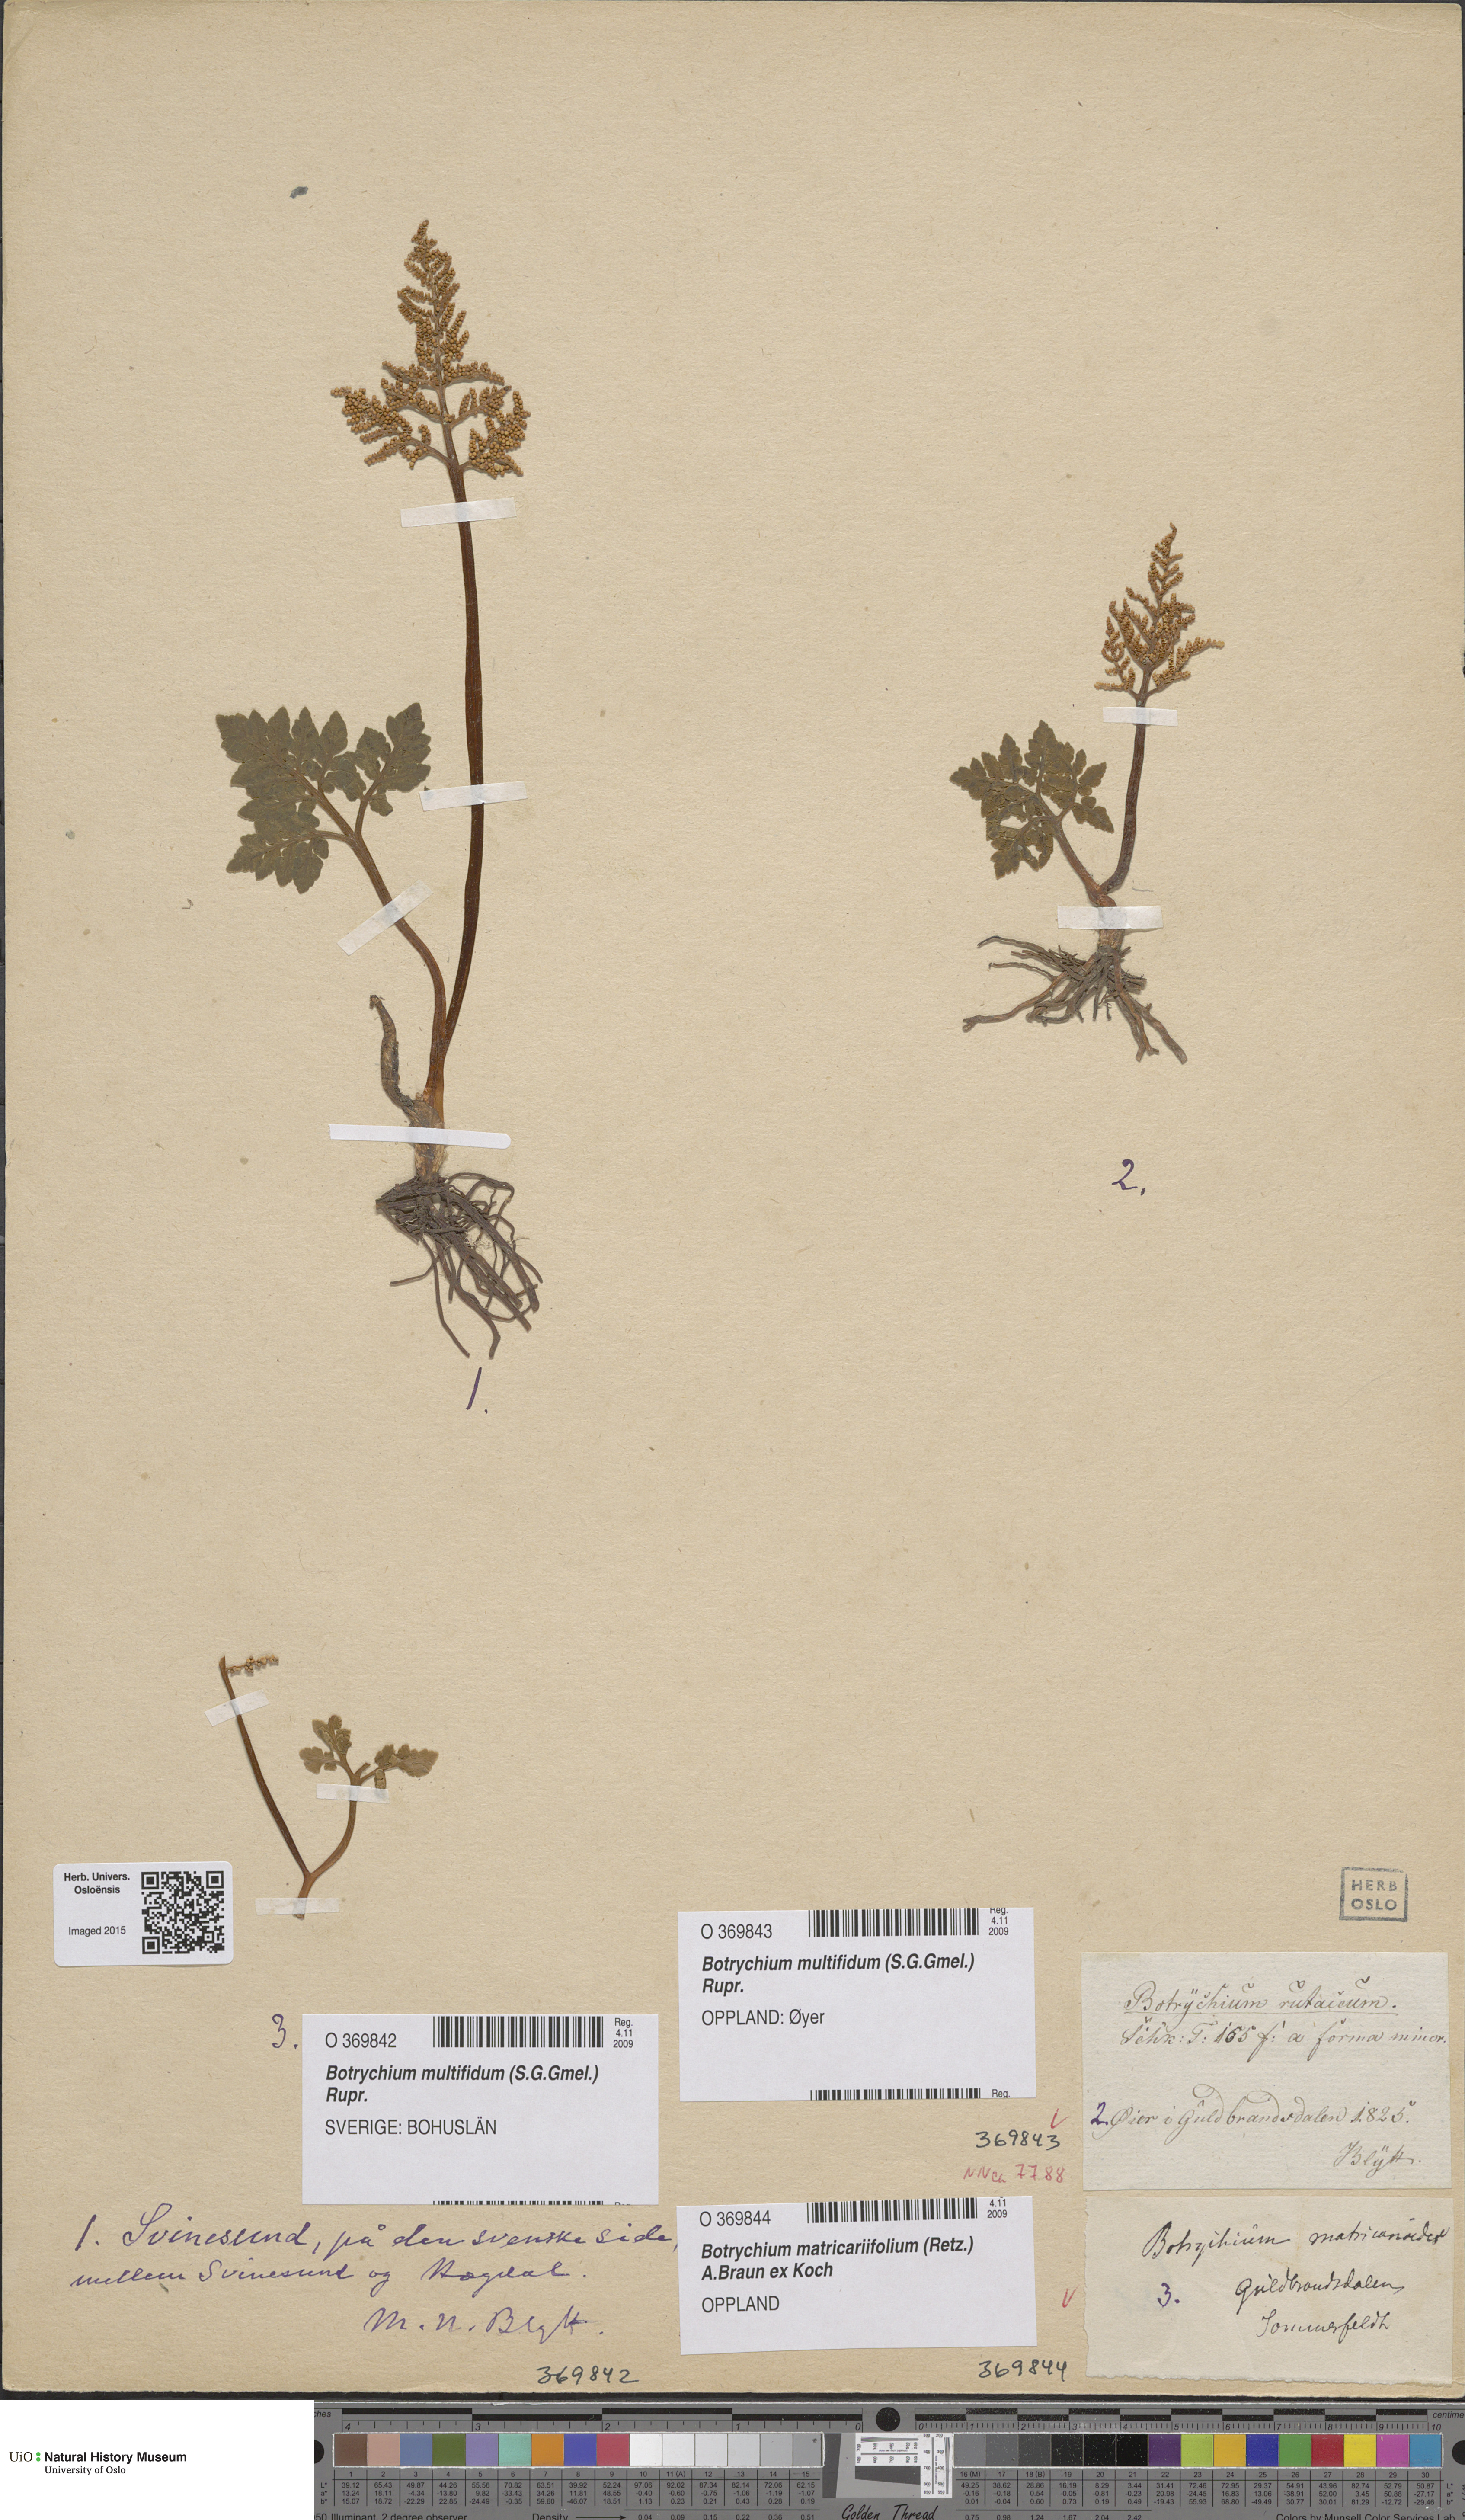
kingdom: Plantae
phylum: Tracheophyta
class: Polypodiopsida
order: Ophioglossales
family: Ophioglossaceae
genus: Sceptridium
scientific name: Sceptridium multifidum
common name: Leathery grape fern
